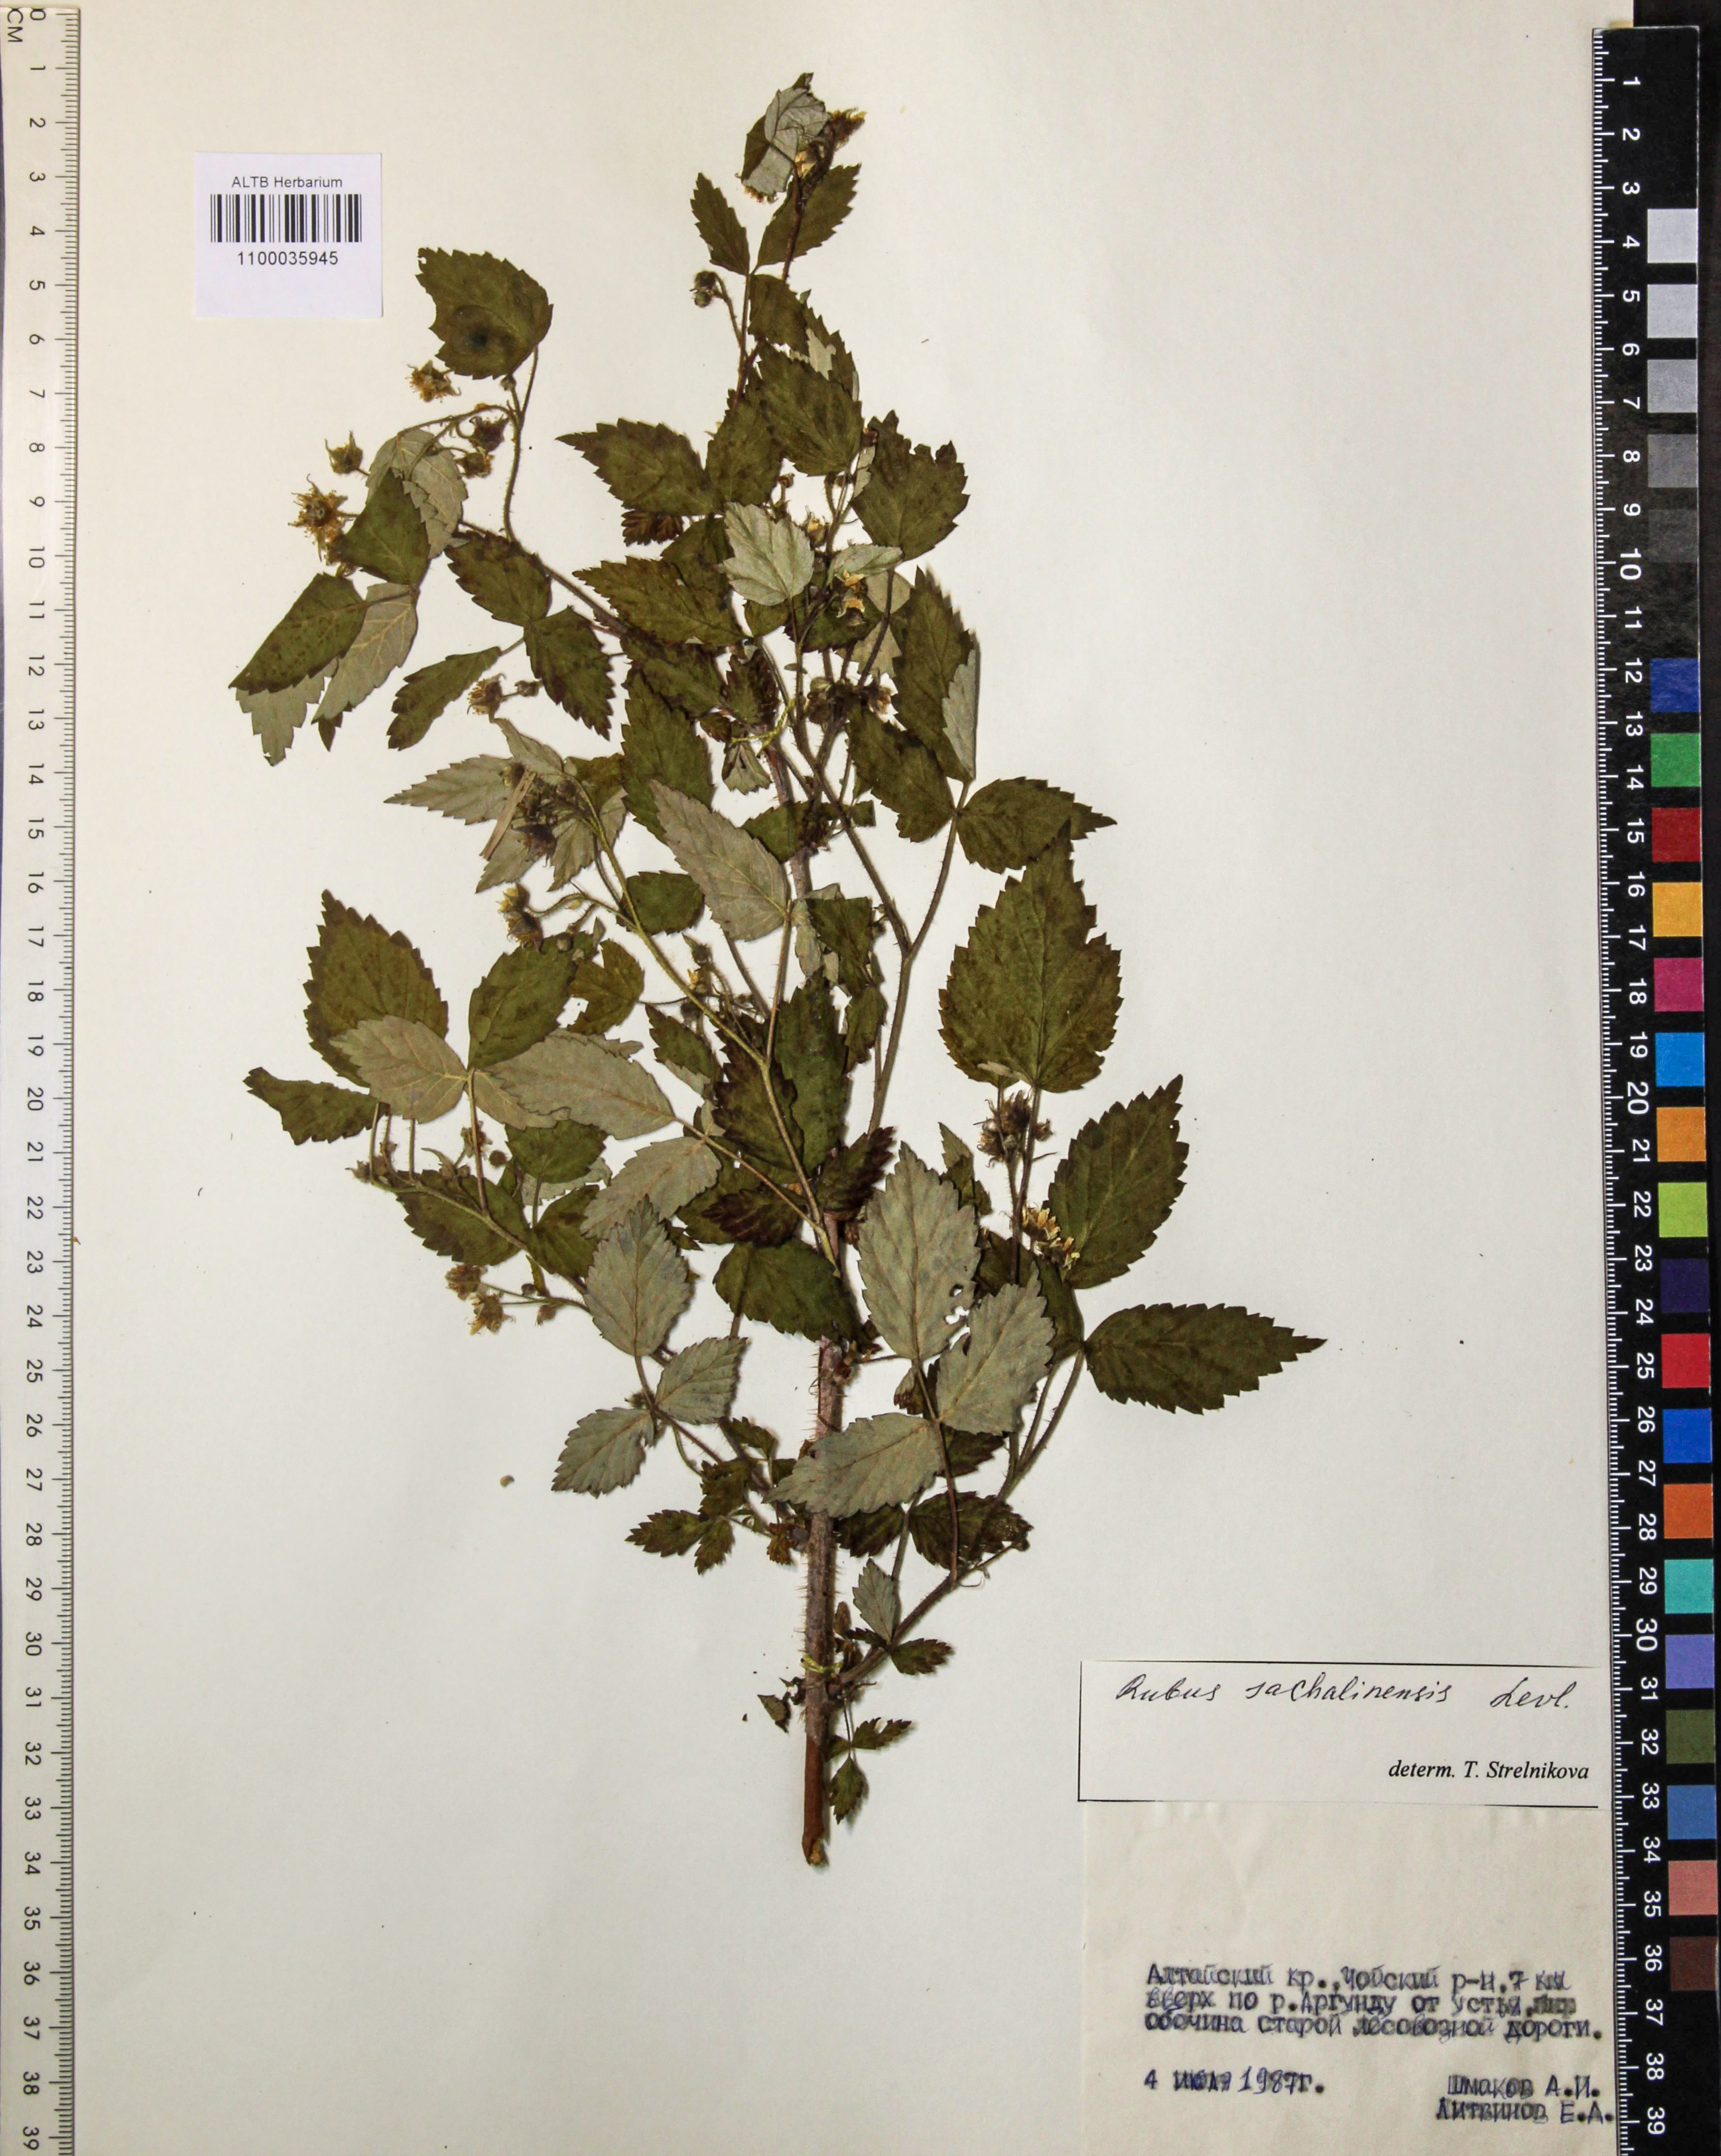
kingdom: Plantae
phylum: Tracheophyta
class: Magnoliopsida
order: Rosales
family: Rosaceae
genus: Rubus
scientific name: Rubus sachalinensis
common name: Red raspberry
